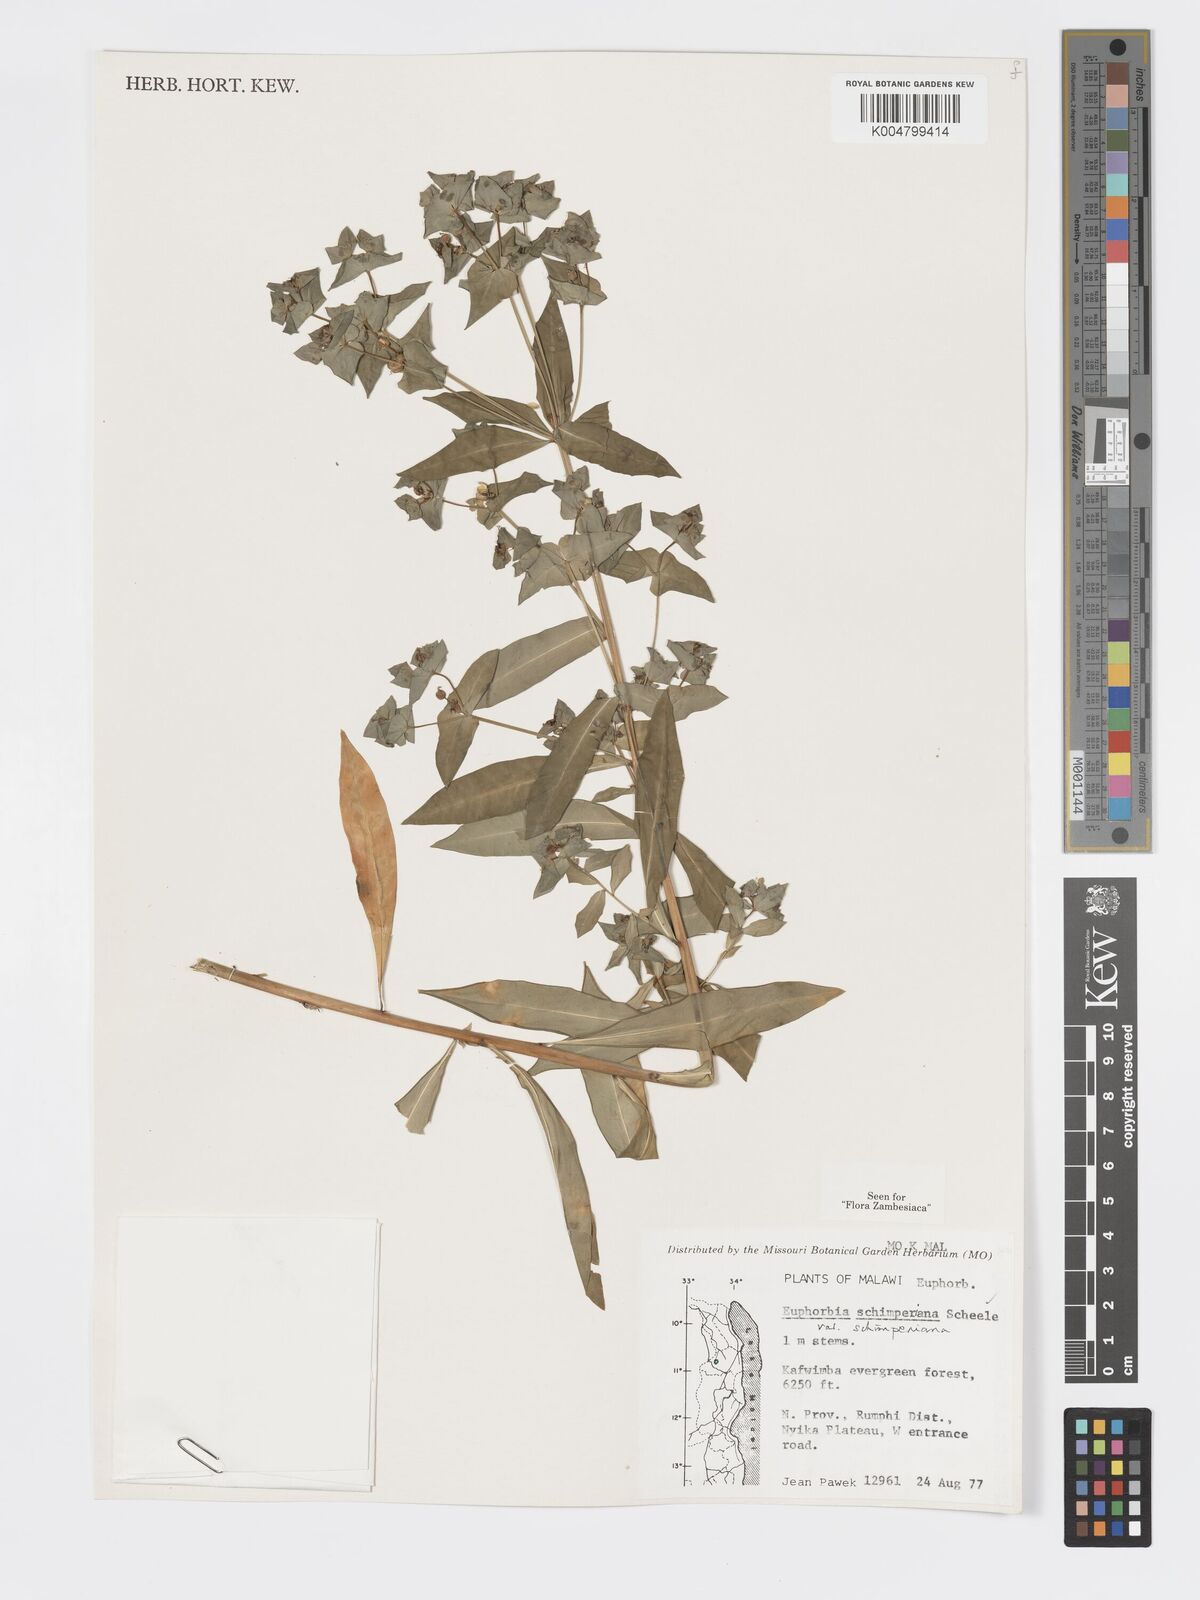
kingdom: Plantae
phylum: Tracheophyta
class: Magnoliopsida
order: Malpighiales
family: Euphorbiaceae
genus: Euphorbia
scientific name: Euphorbia schimperiana
